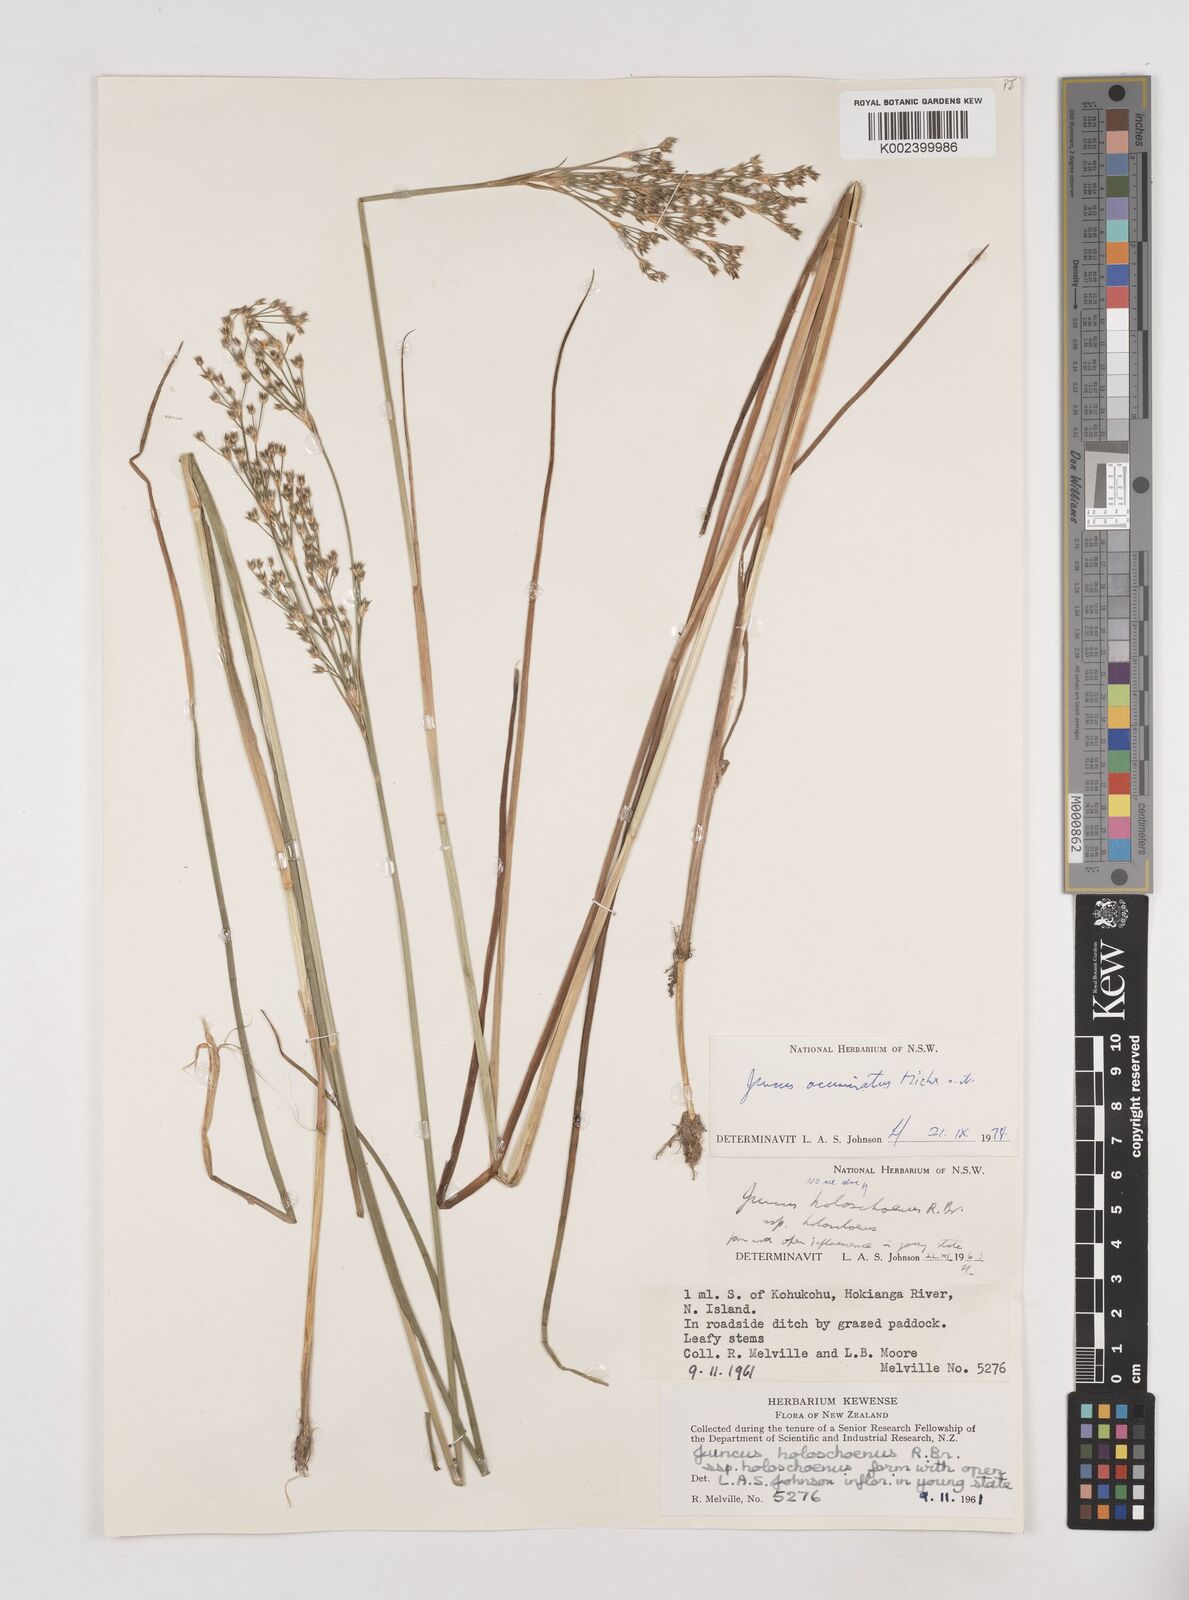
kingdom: Plantae
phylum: Tracheophyta
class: Liliopsida
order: Poales
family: Juncaceae
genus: Juncus
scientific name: Juncus acuminatus
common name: Knotty-leaved rush
